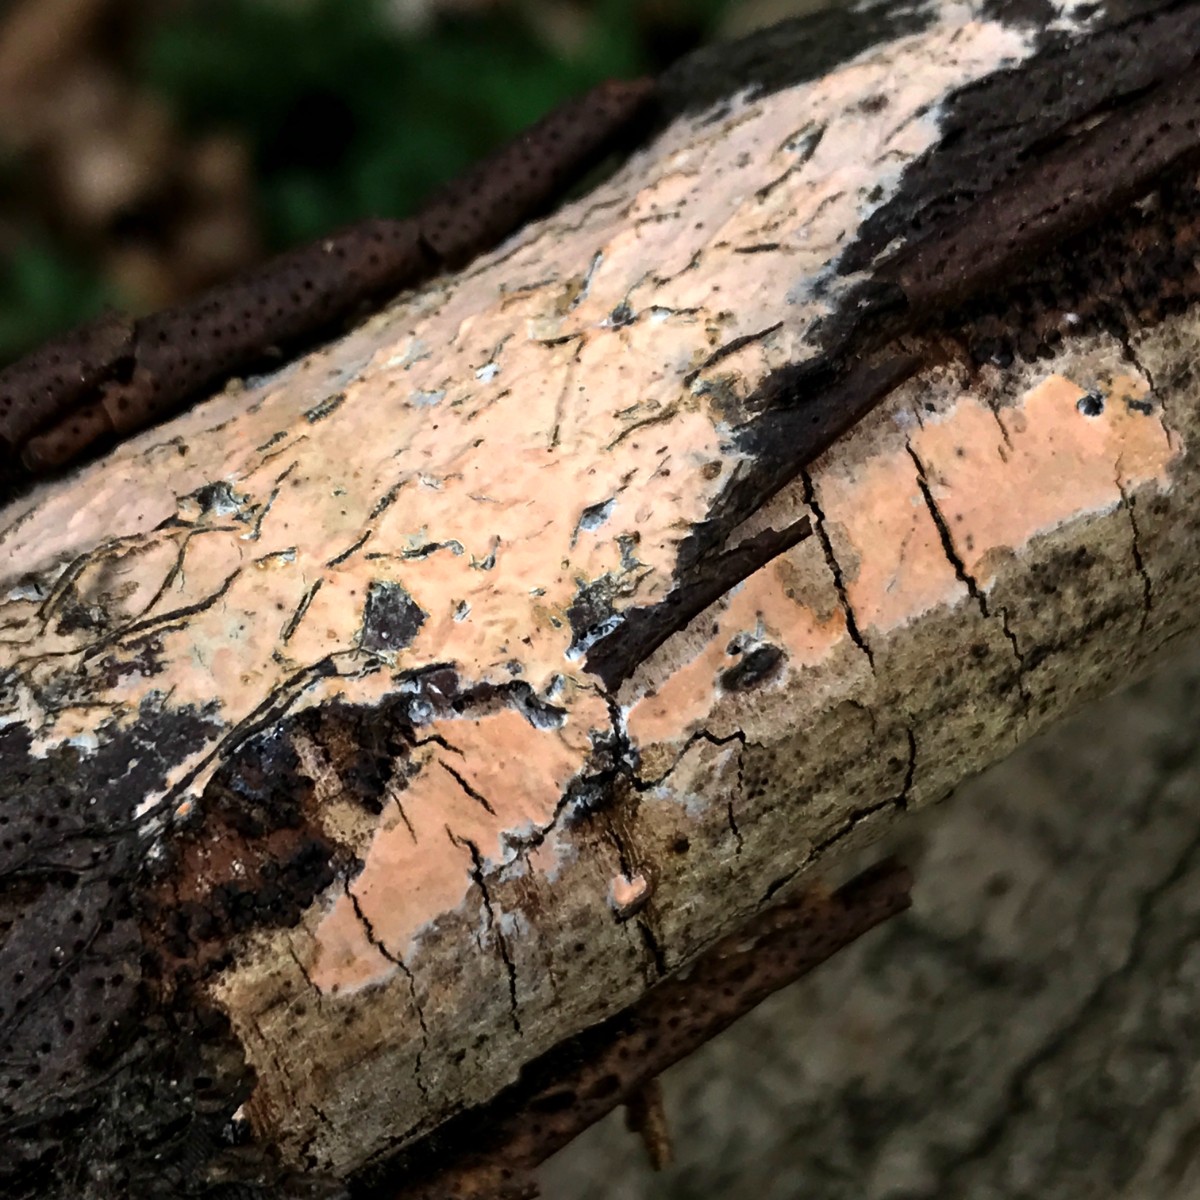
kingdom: Fungi
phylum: Basidiomycota
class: Agaricomycetes
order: Russulales
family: Peniophoraceae
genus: Peniophora
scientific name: Peniophora incarnata
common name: laksefarvet voksskind
